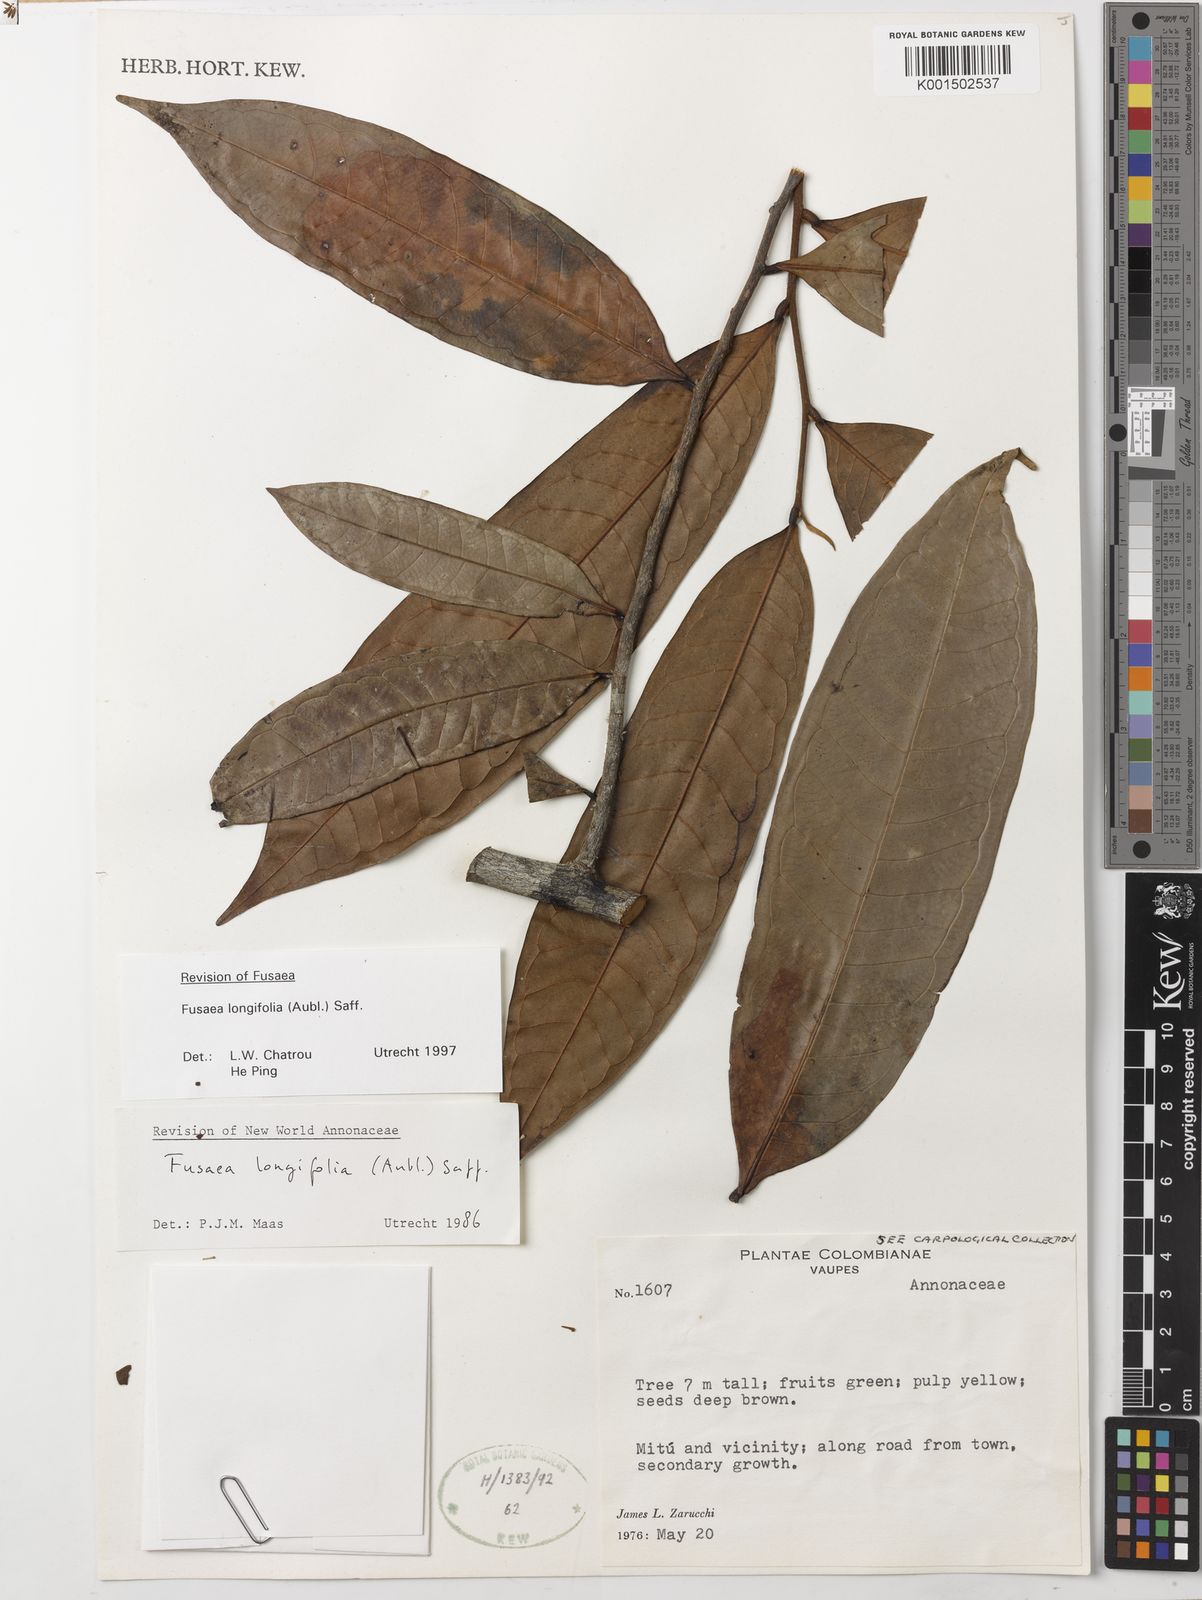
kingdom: Plantae
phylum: Tracheophyta
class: Magnoliopsida
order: Magnoliales
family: Annonaceae
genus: Fusaea
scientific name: Fusaea longifolia
